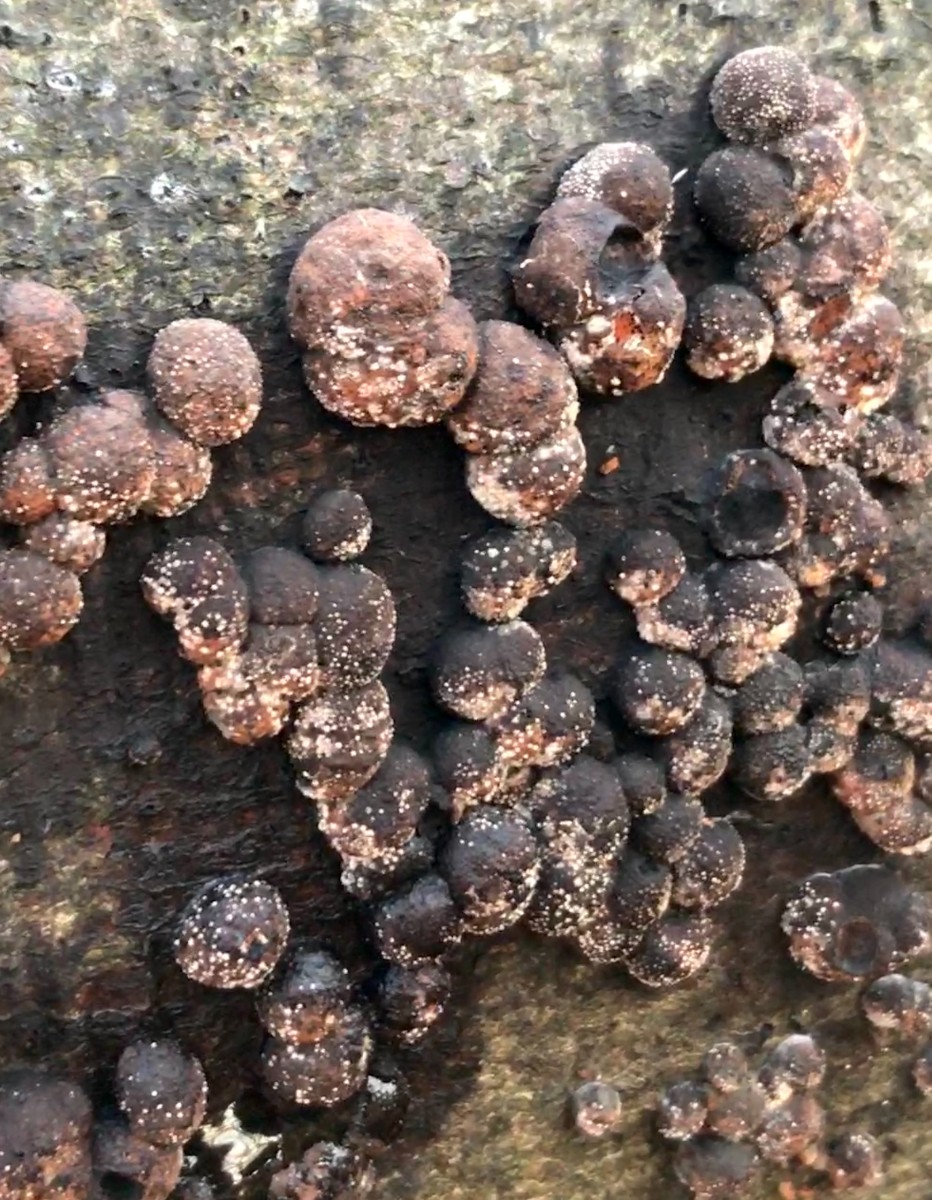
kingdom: Fungi
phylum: Ascomycota
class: Sordariomycetes
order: Xylariales
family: Hypoxylaceae
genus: Hypoxylon
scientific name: Hypoxylon fragiforme
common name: kuljordbær
